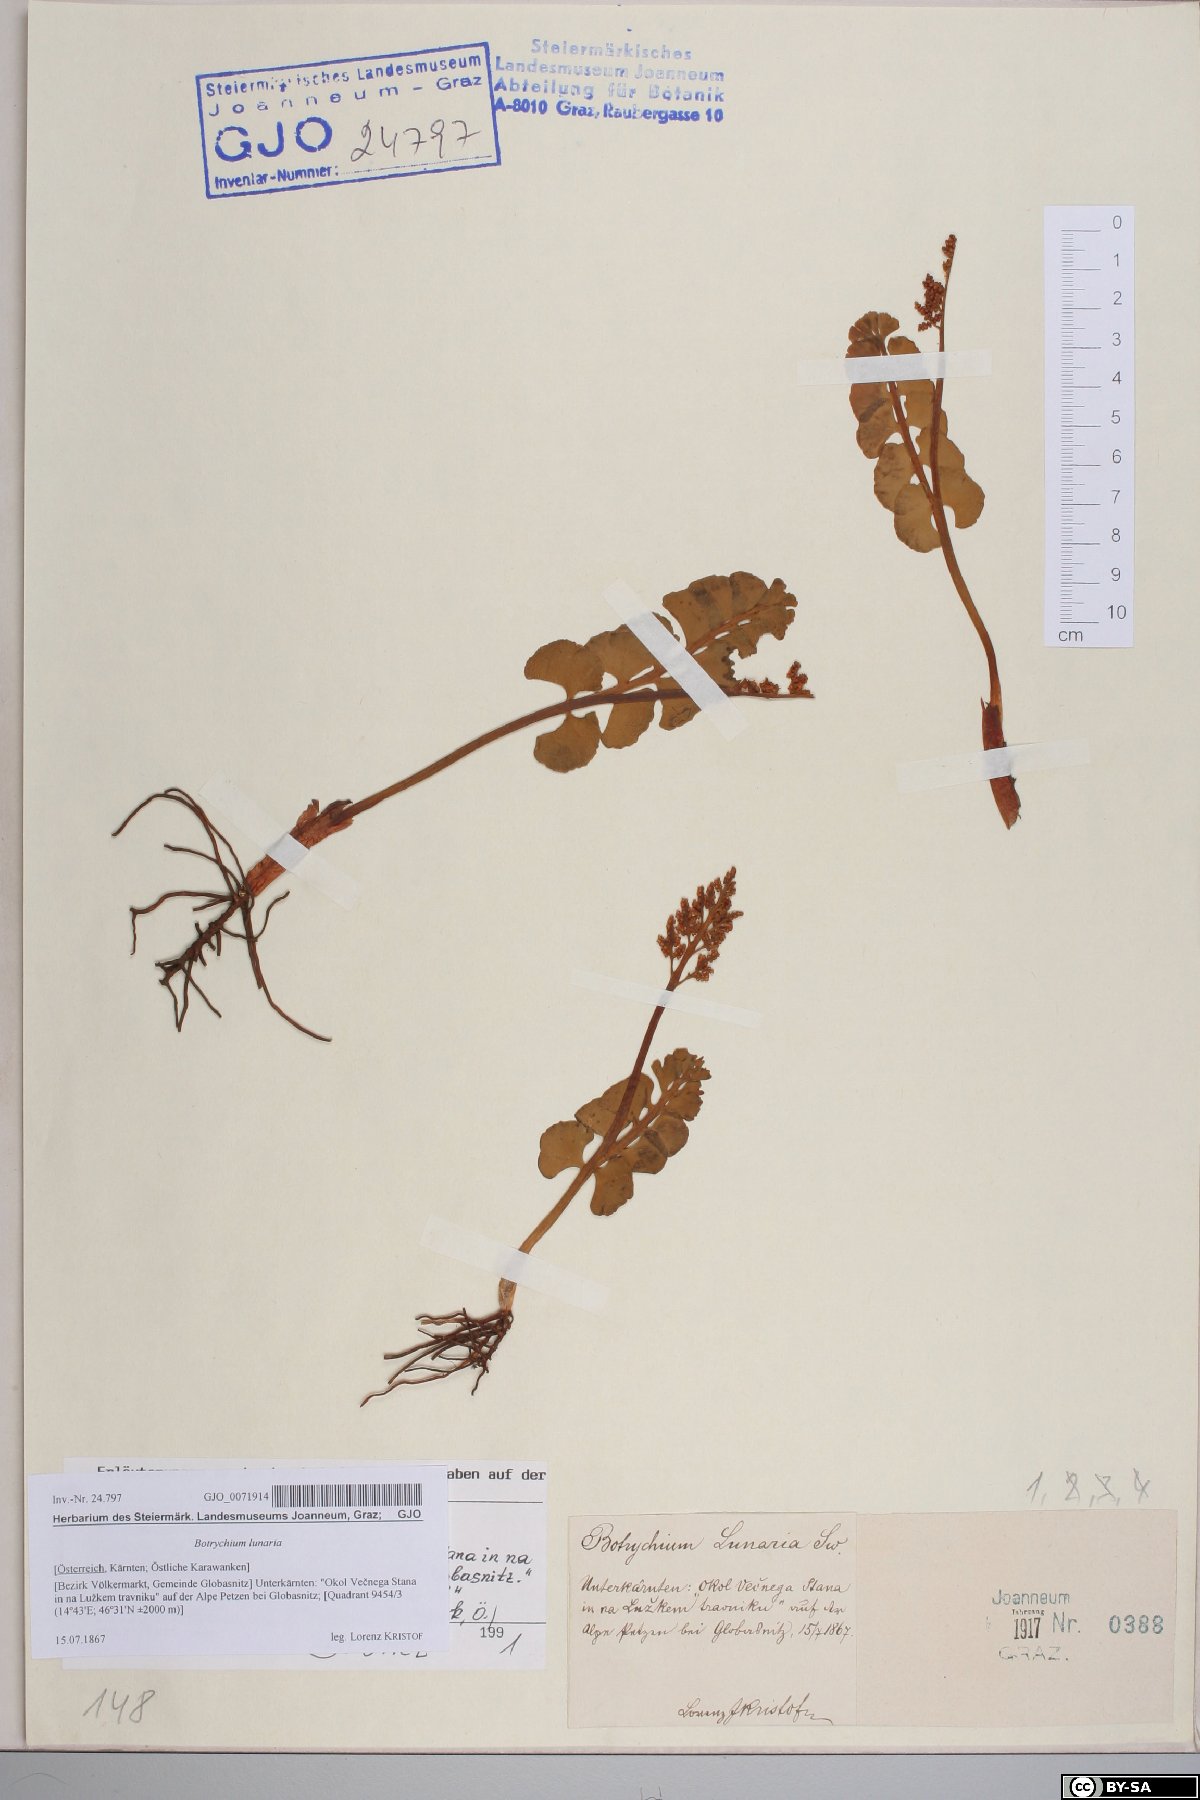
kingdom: Plantae
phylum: Tracheophyta
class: Polypodiopsida
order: Ophioglossales
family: Ophioglossaceae
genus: Botrychium
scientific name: Botrychium lunaria
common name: Moonwort
